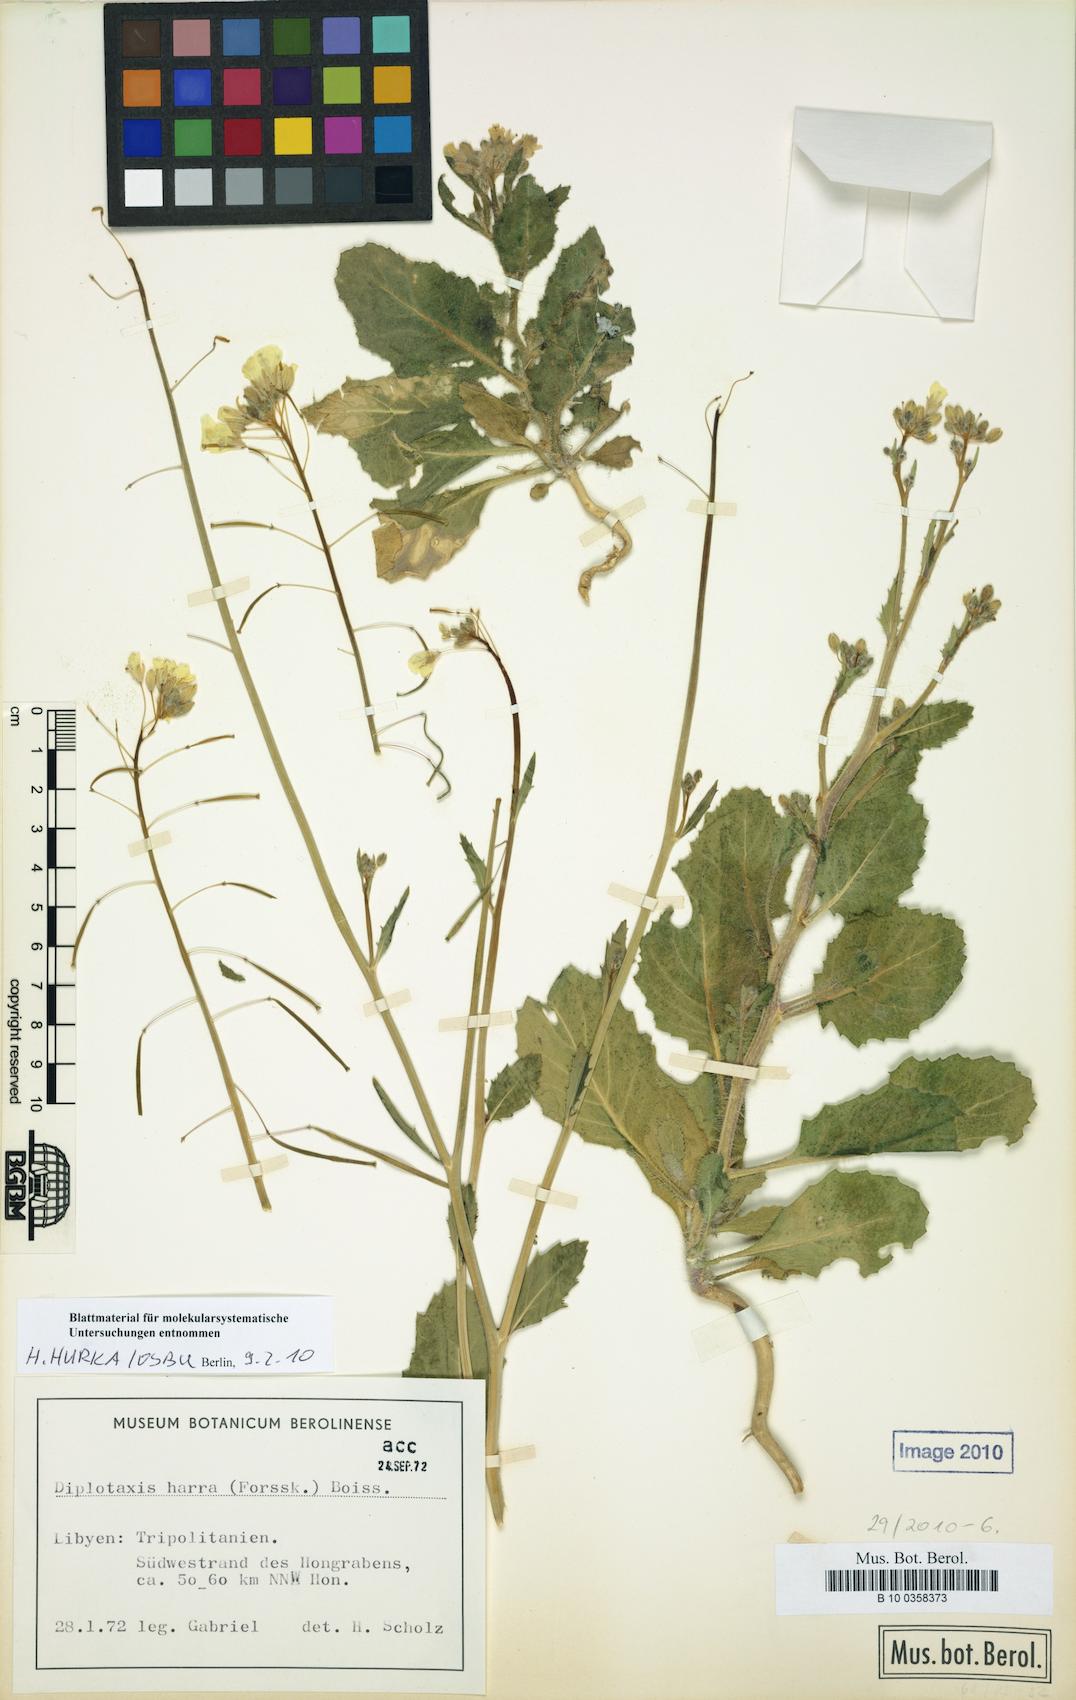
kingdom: Plantae
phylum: Tracheophyta
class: Magnoliopsida
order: Brassicales
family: Brassicaceae
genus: Diplotaxis
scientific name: Diplotaxis harra
